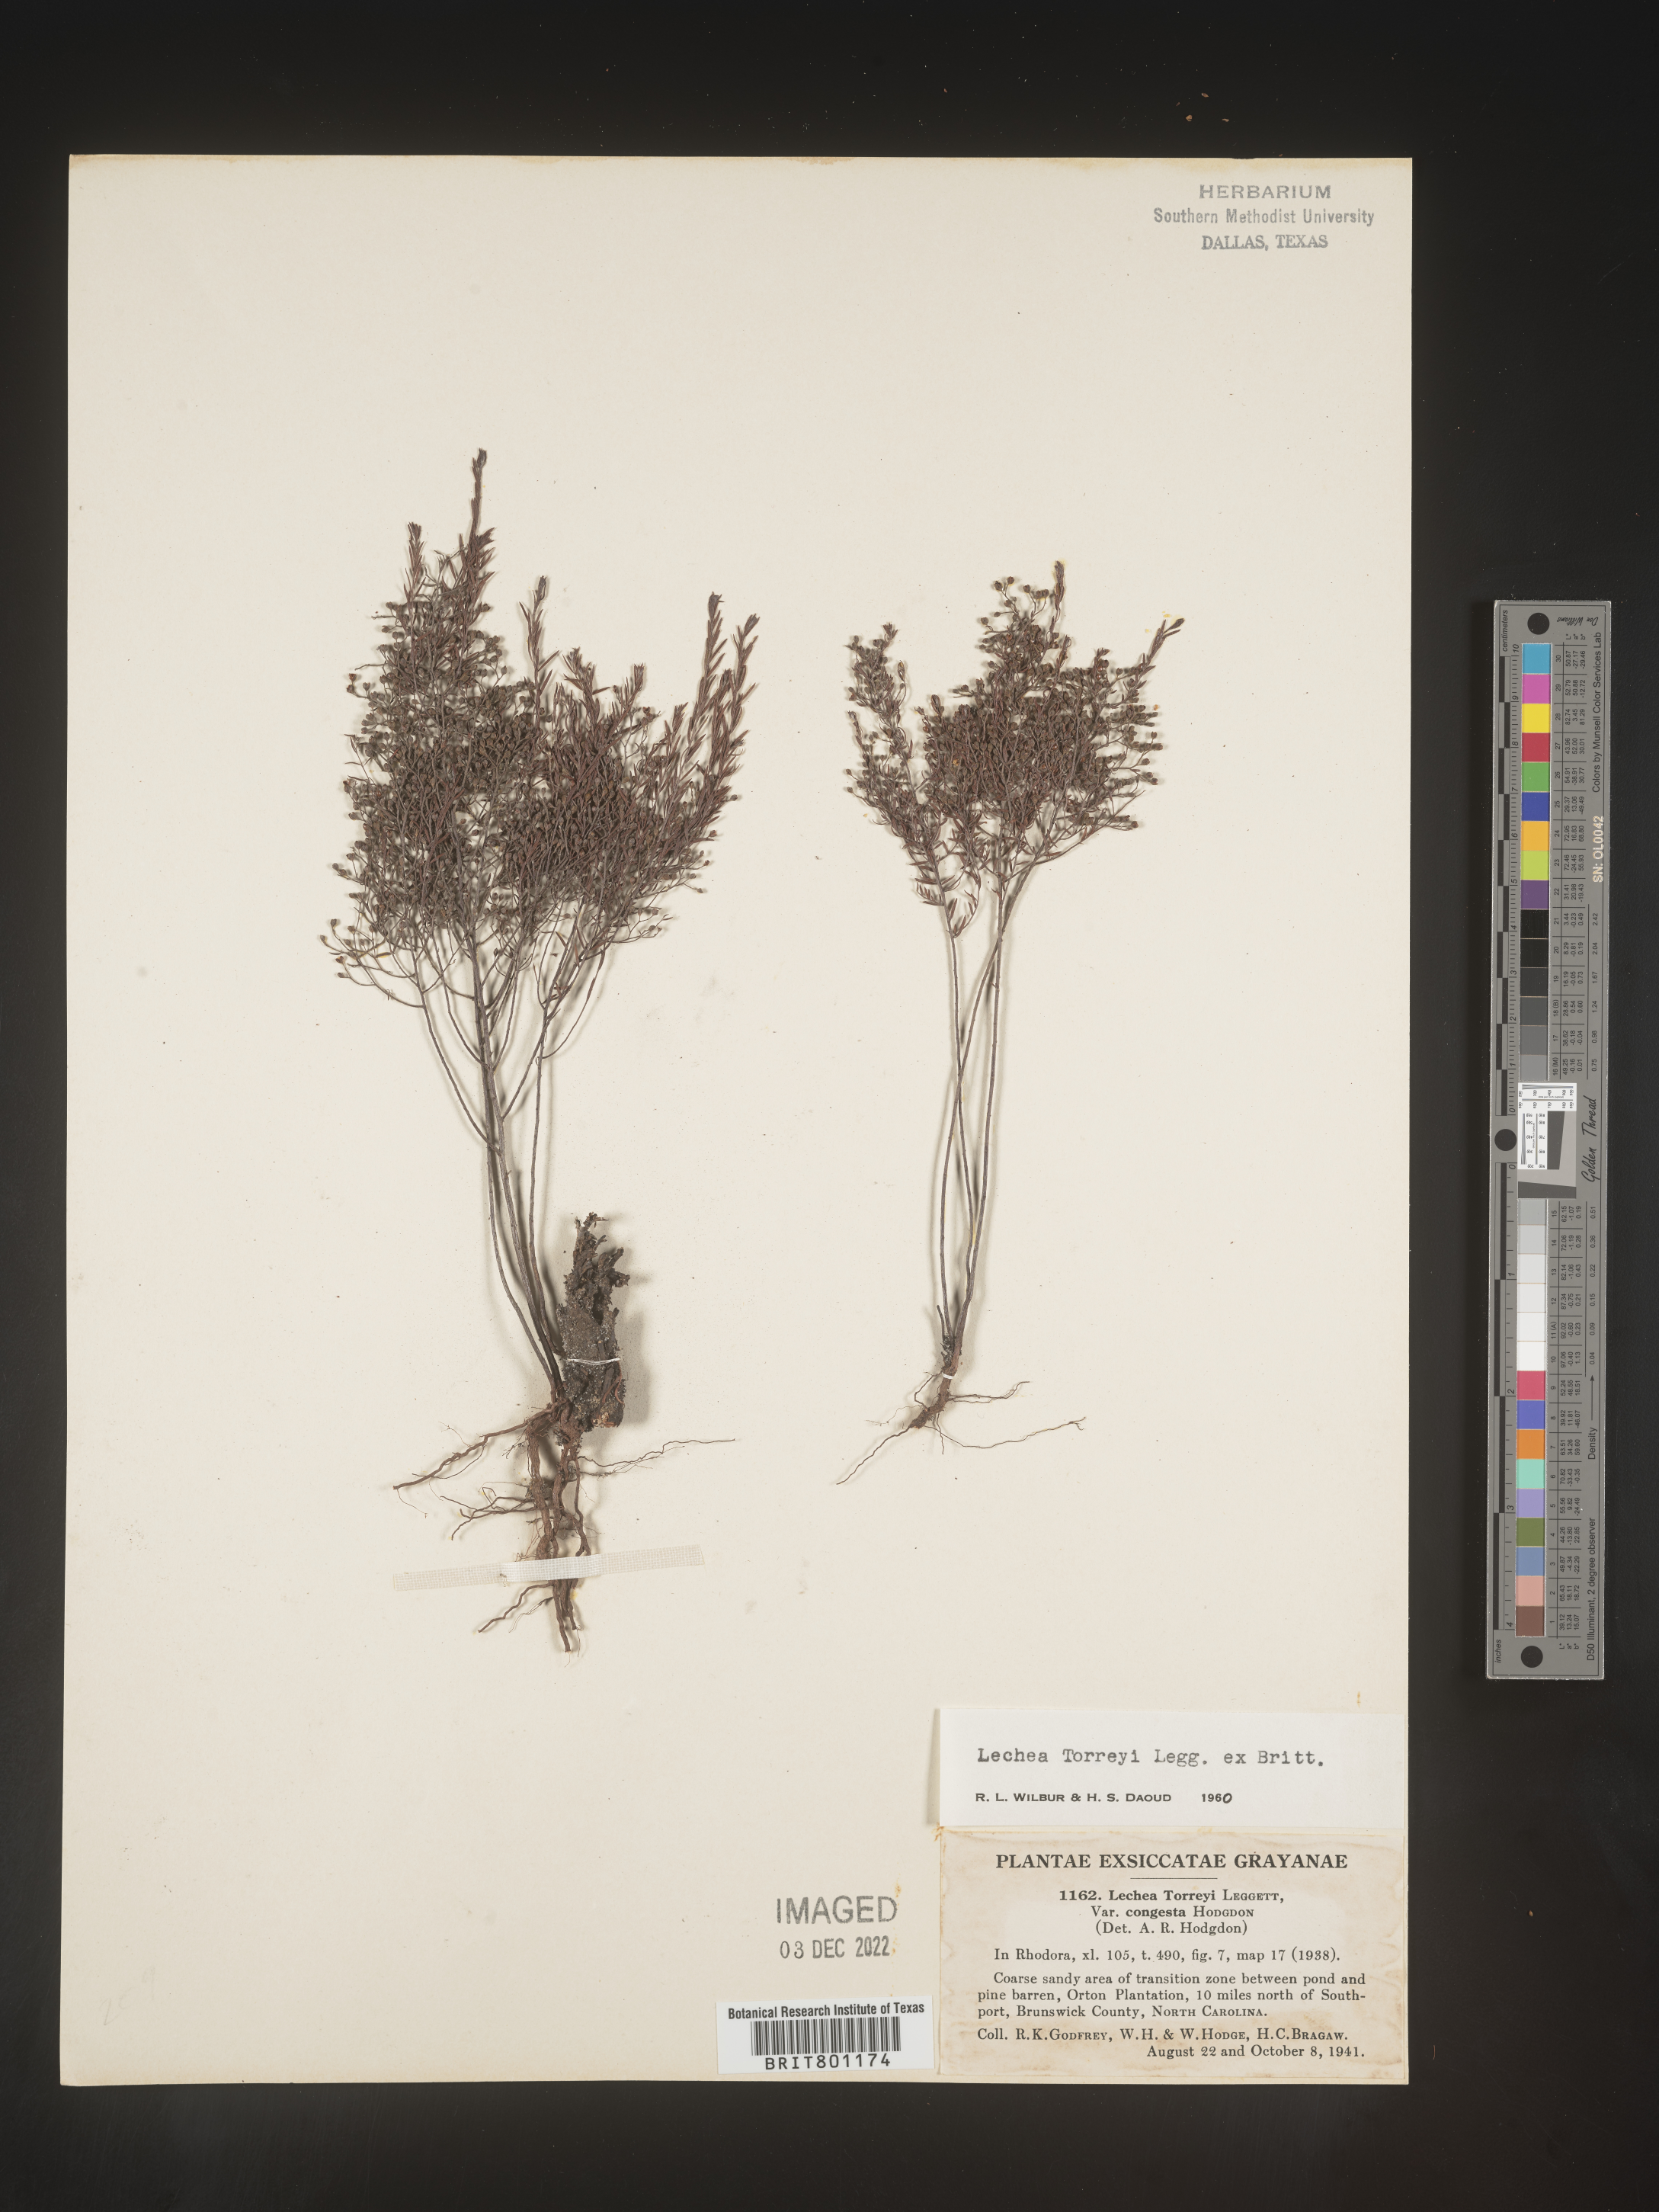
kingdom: Plantae
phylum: Tracheophyta
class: Magnoliopsida
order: Malvales
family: Cistaceae
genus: Lechea
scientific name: Lechea torreyi
